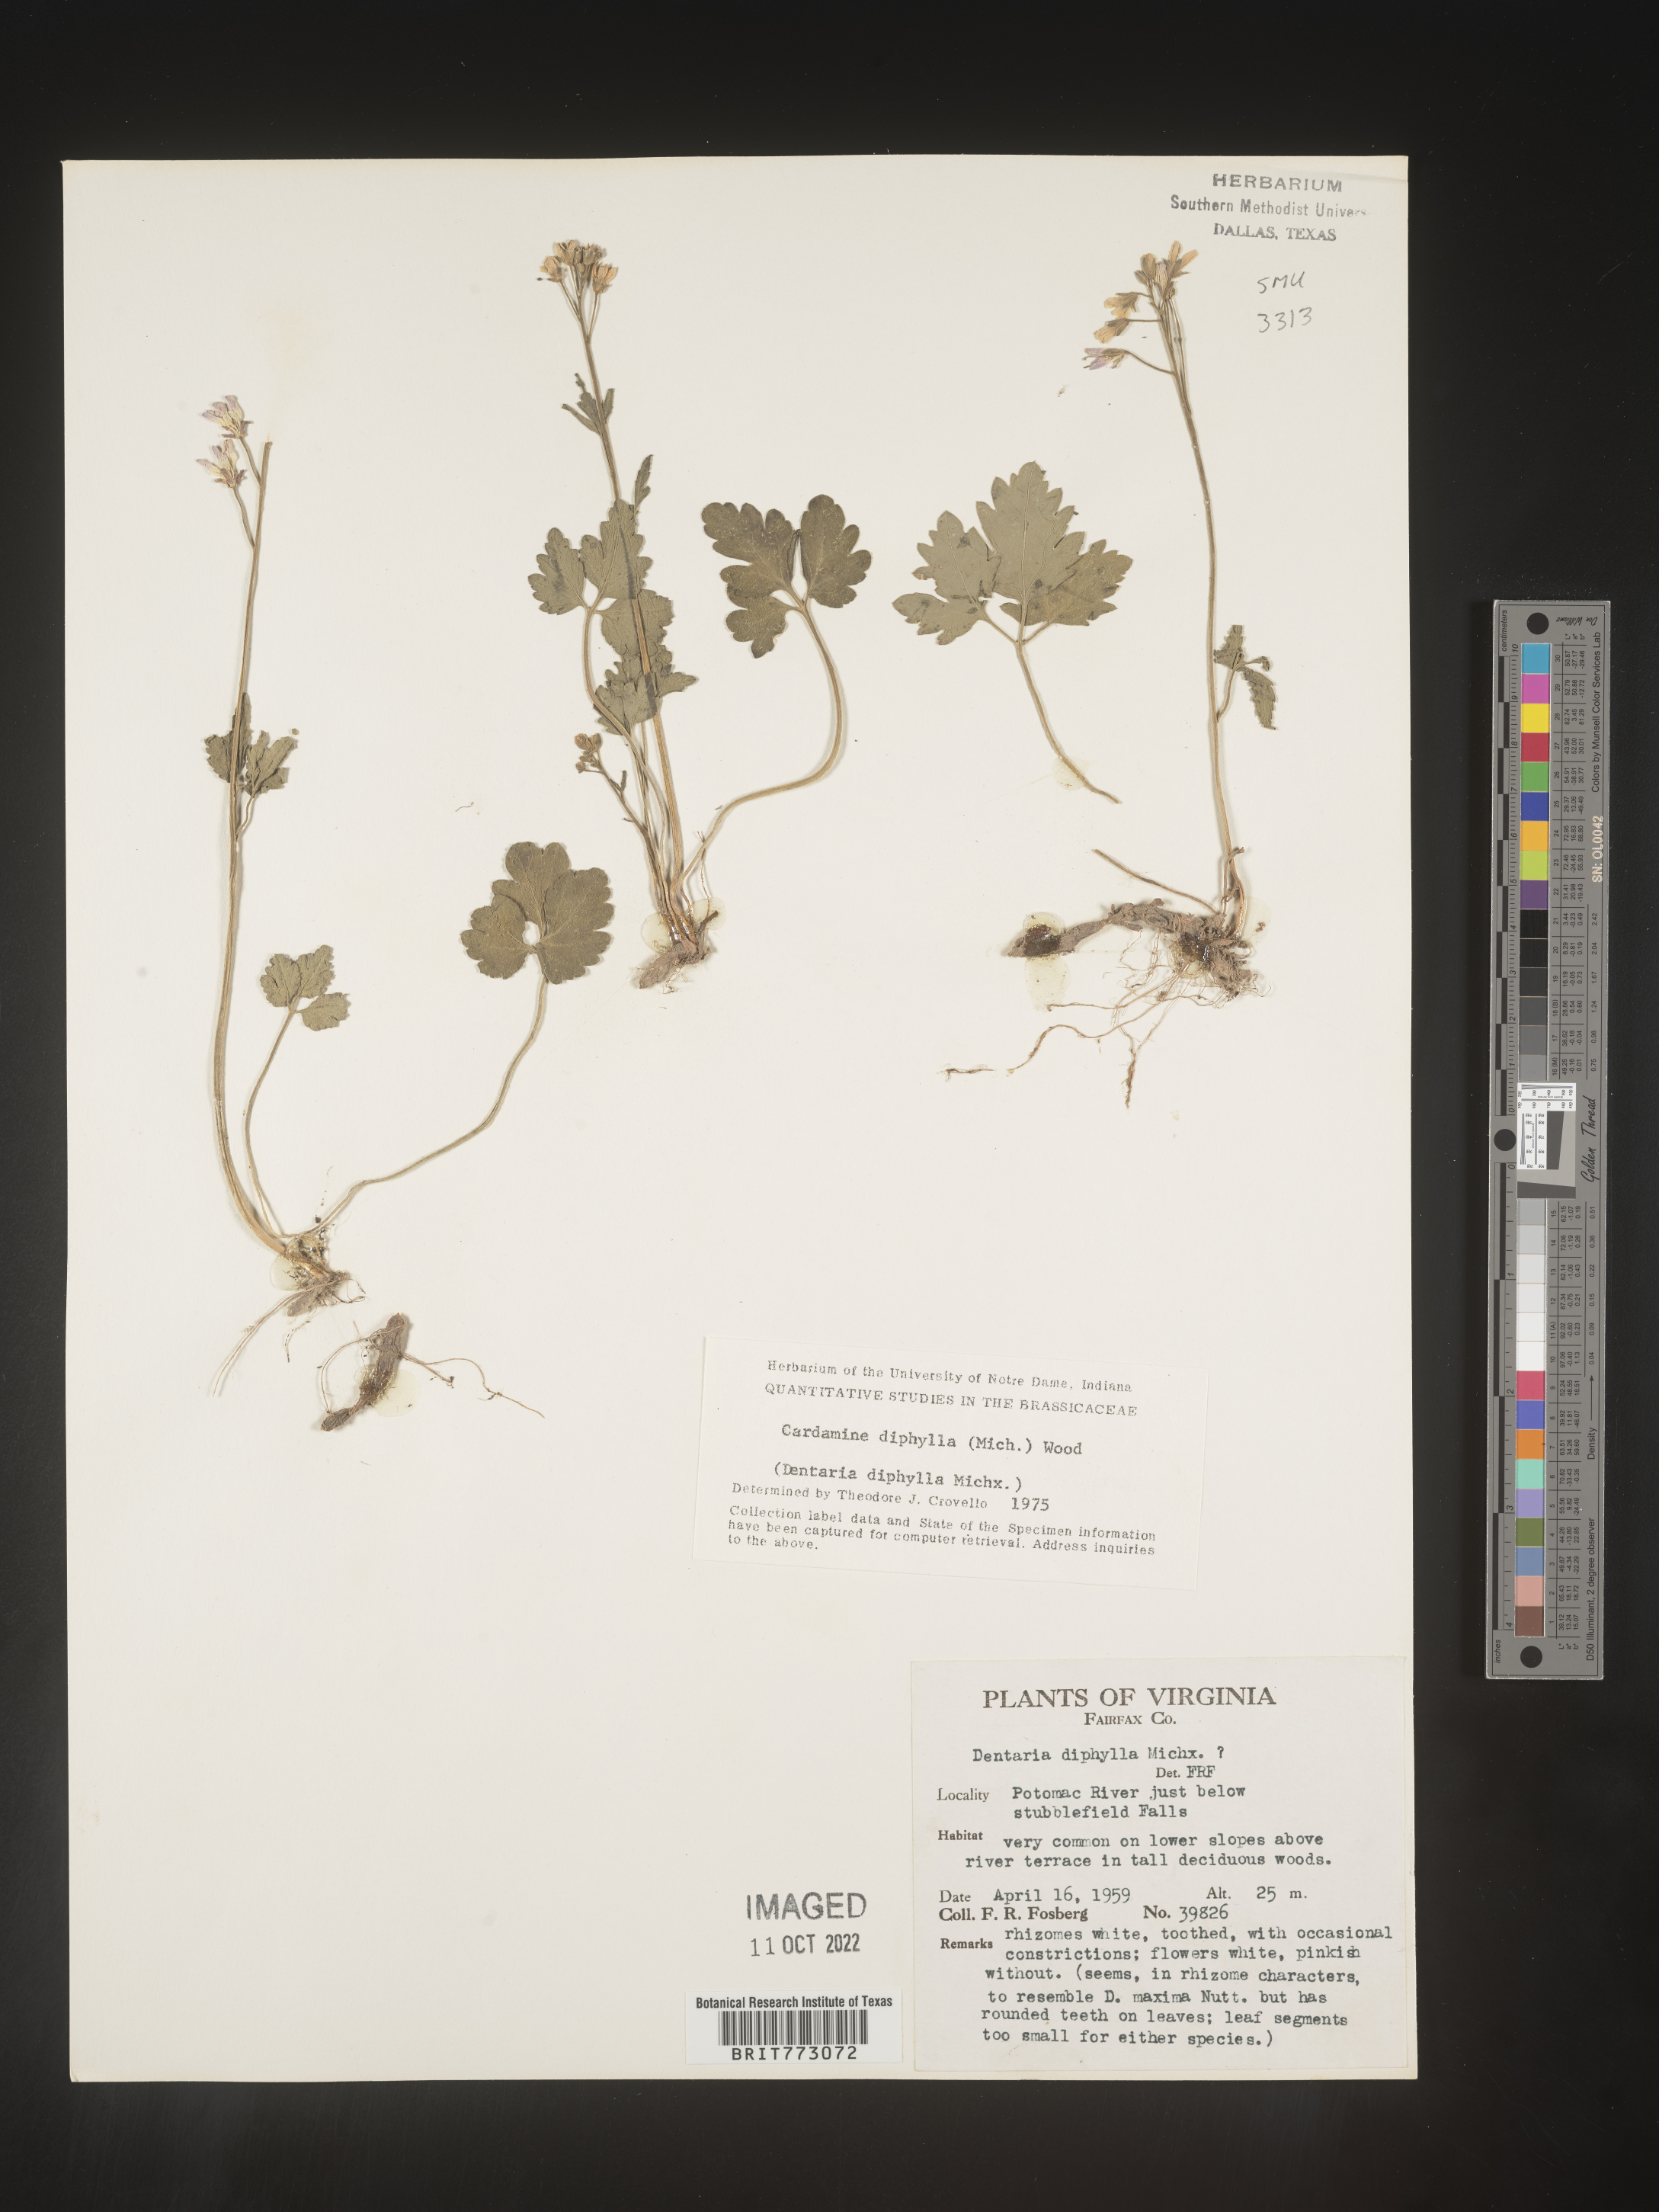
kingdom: Plantae
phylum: Tracheophyta
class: Magnoliopsida
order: Brassicales
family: Brassicaceae
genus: Cardamine
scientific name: Cardamine diphylla
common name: Broad-leaved toothwort
